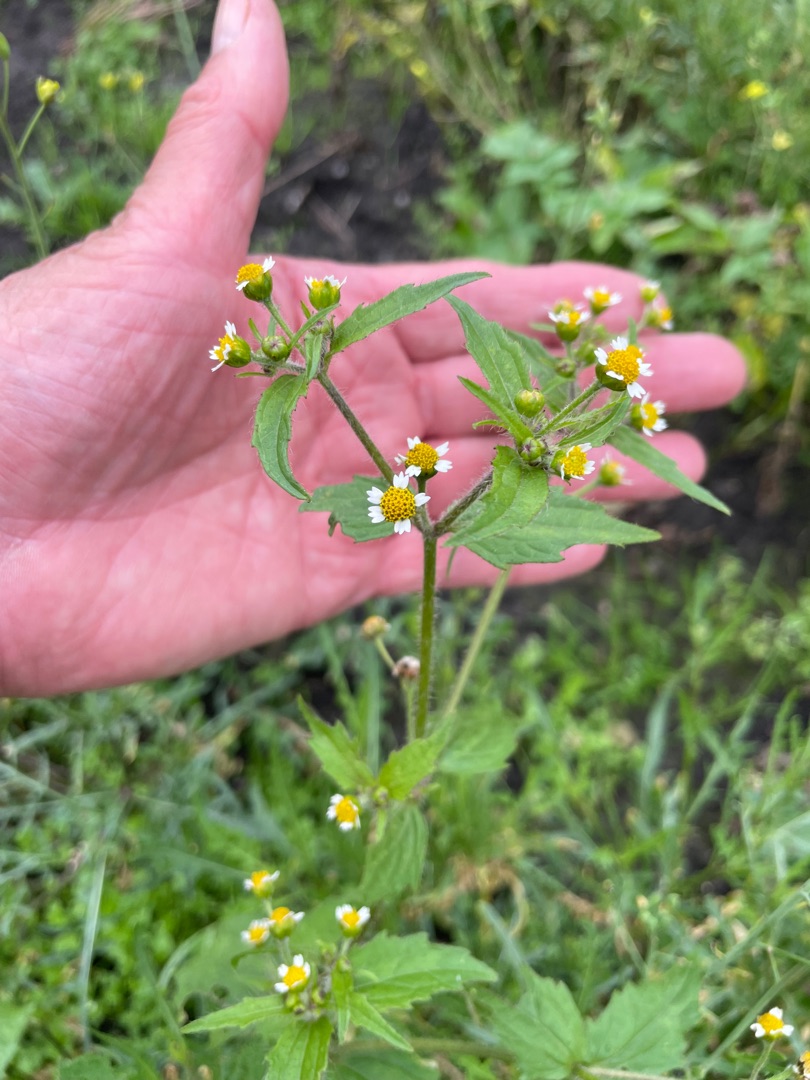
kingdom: Plantae
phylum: Tracheophyta
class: Magnoliopsida
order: Asterales
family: Asteraceae
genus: Galinsoga
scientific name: Galinsoga quadriradiata
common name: Kirtel-kortstråle
